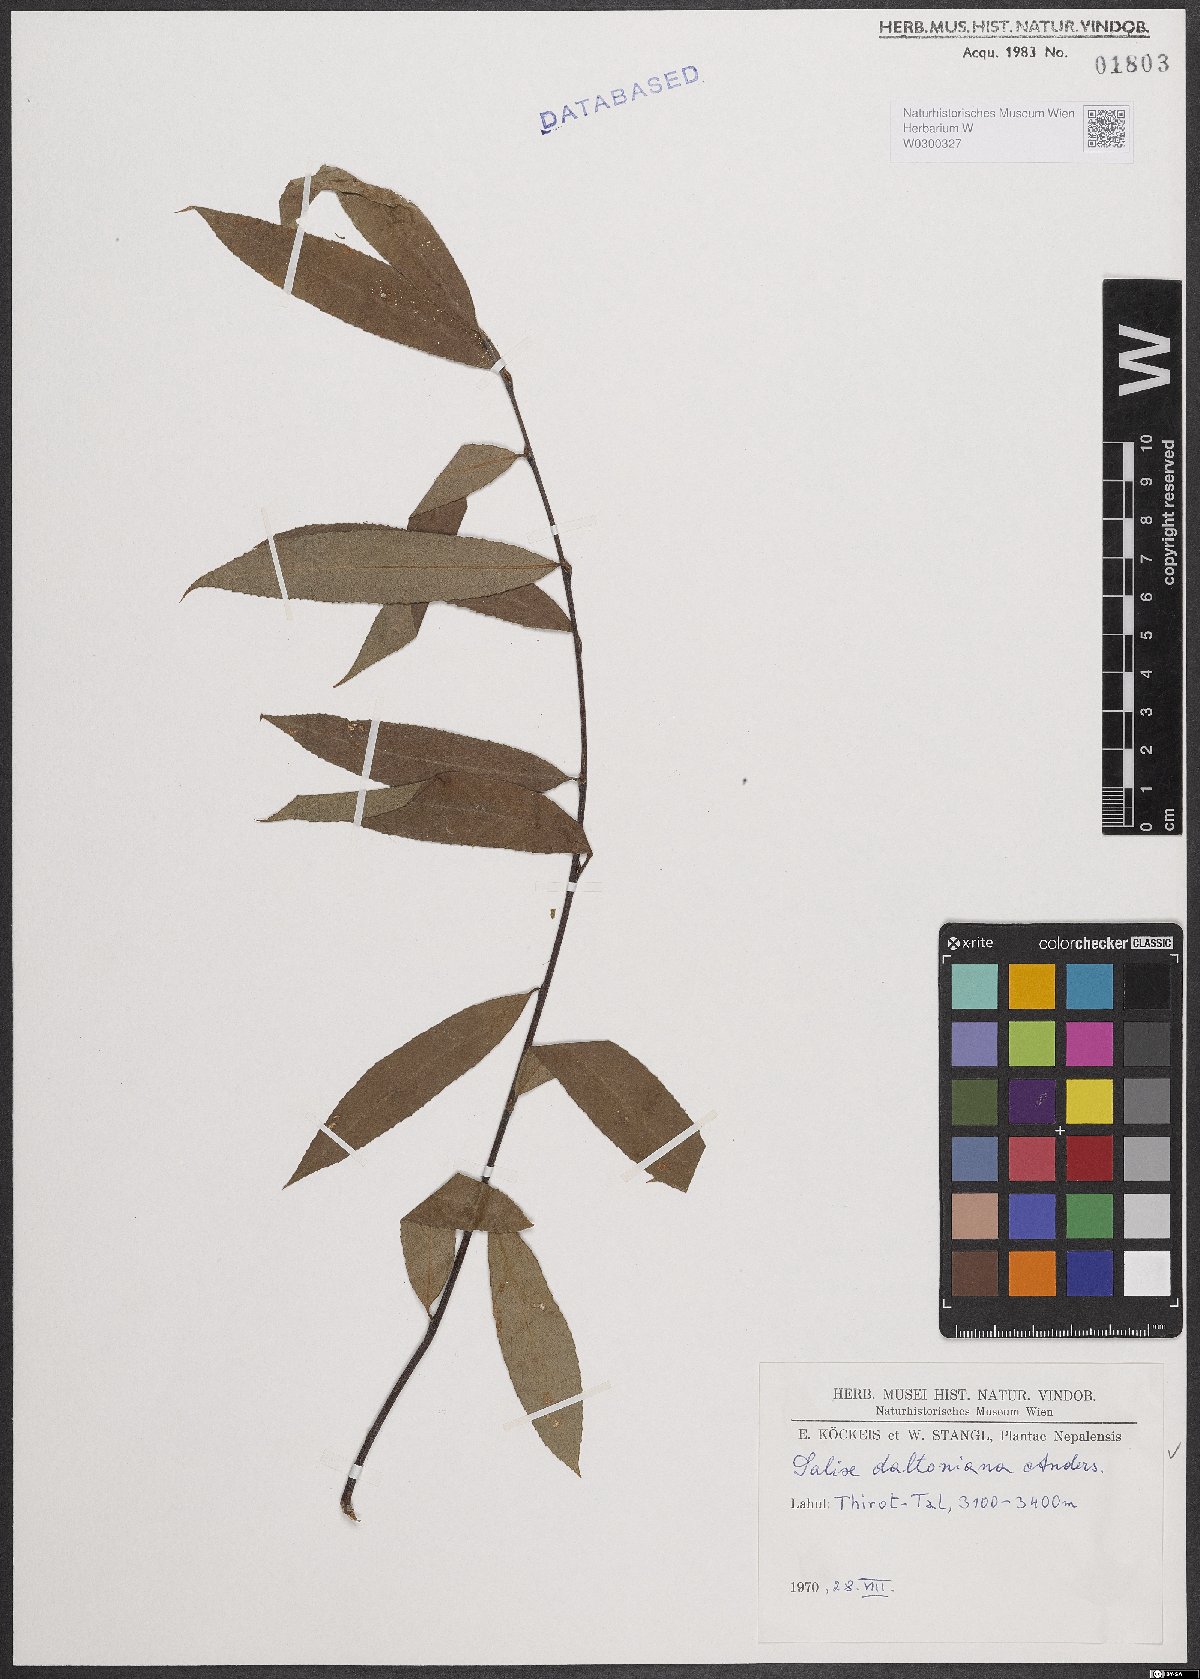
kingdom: Plantae
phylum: Tracheophyta
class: Magnoliopsida
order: Malpighiales
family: Salicaceae
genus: Salix
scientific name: Salix daltoniana
